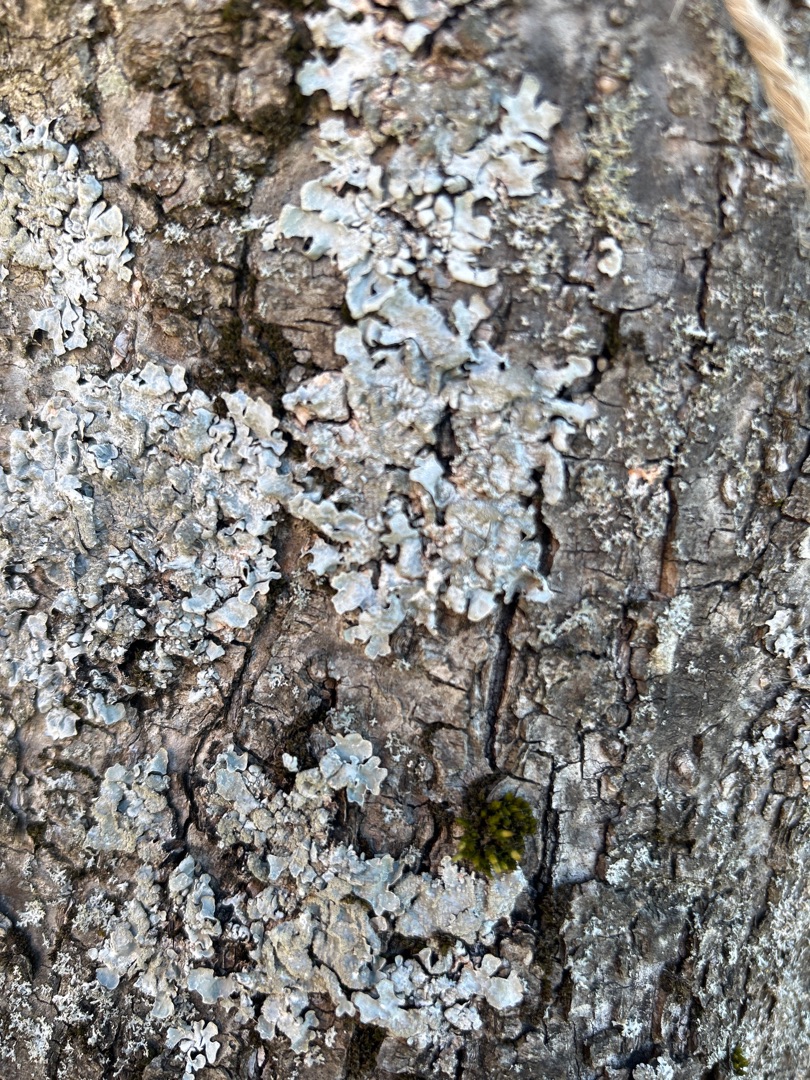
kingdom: Fungi
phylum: Ascomycota
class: Lecanoromycetes
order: Lecanorales
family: Parmeliaceae
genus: Parmelia
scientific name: Parmelia sulcata
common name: Rynket skållav
